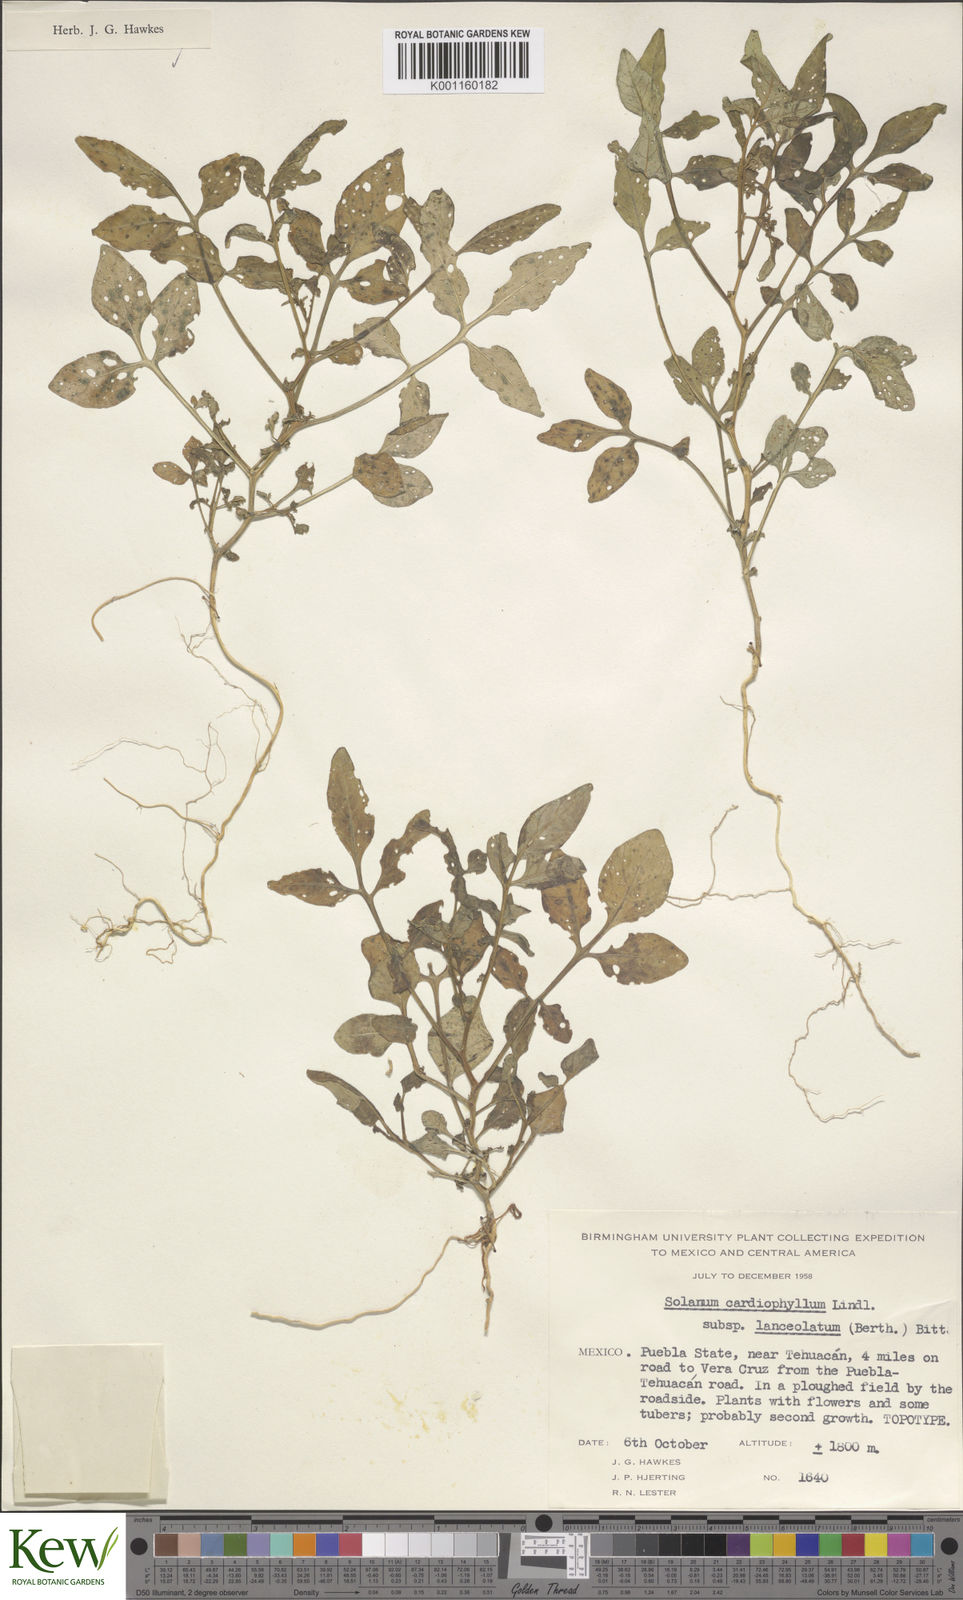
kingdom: Plantae
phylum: Tracheophyta
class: Magnoliopsida
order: Solanales
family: Solanaceae
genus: Solanum
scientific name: Solanum cardiophyllum
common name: Heartleaf horsenettle
